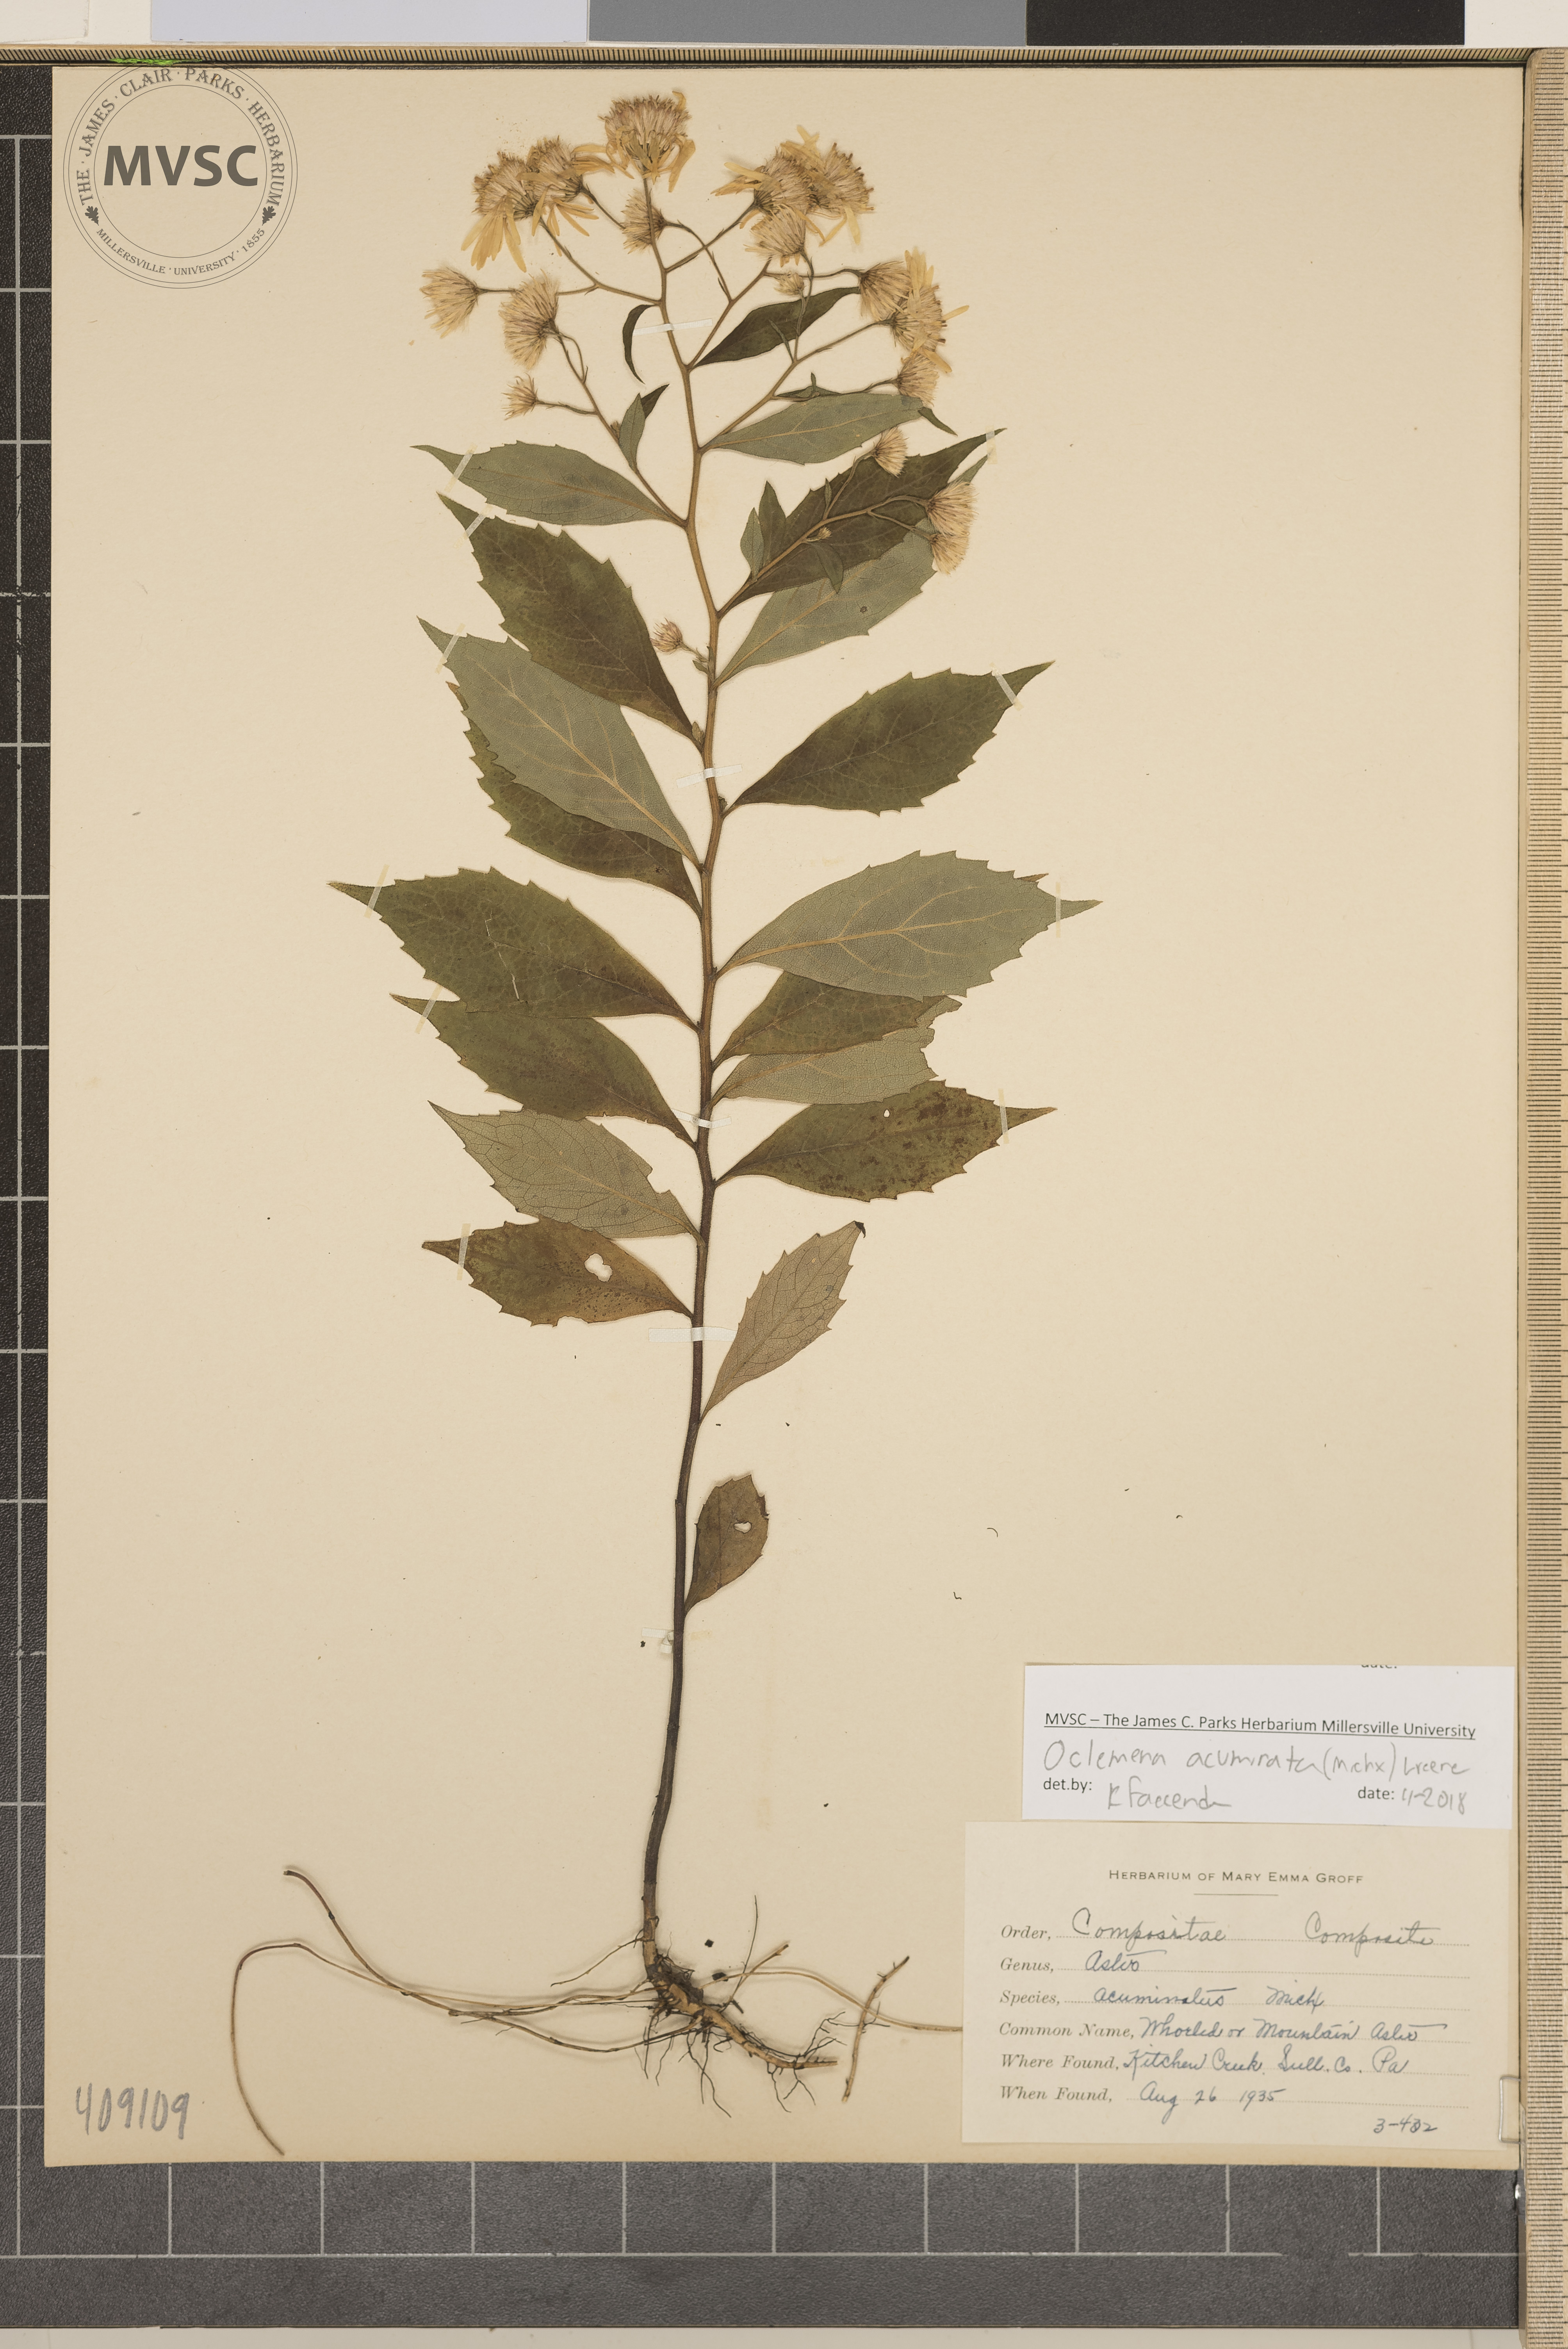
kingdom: Plantae
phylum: Tracheophyta
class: Magnoliopsida
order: Asterales
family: Asteraceae
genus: Oclemena
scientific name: Oclemena acuminata
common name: Bog Aster
